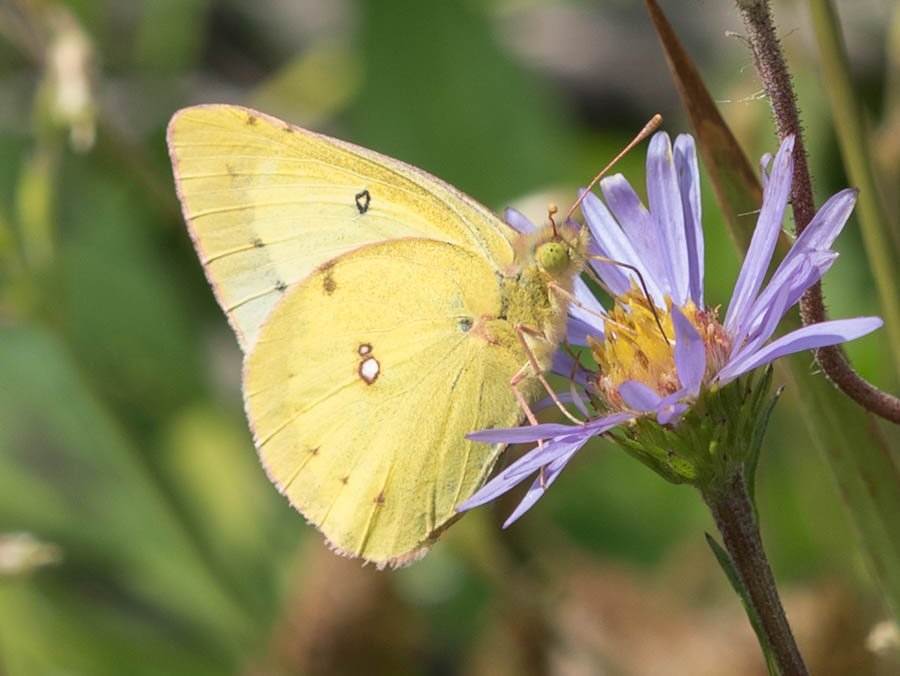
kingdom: Animalia
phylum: Arthropoda
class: Insecta
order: Lepidoptera
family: Pieridae
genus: Colias
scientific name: Colias philodice
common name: Clouded Sulphur
